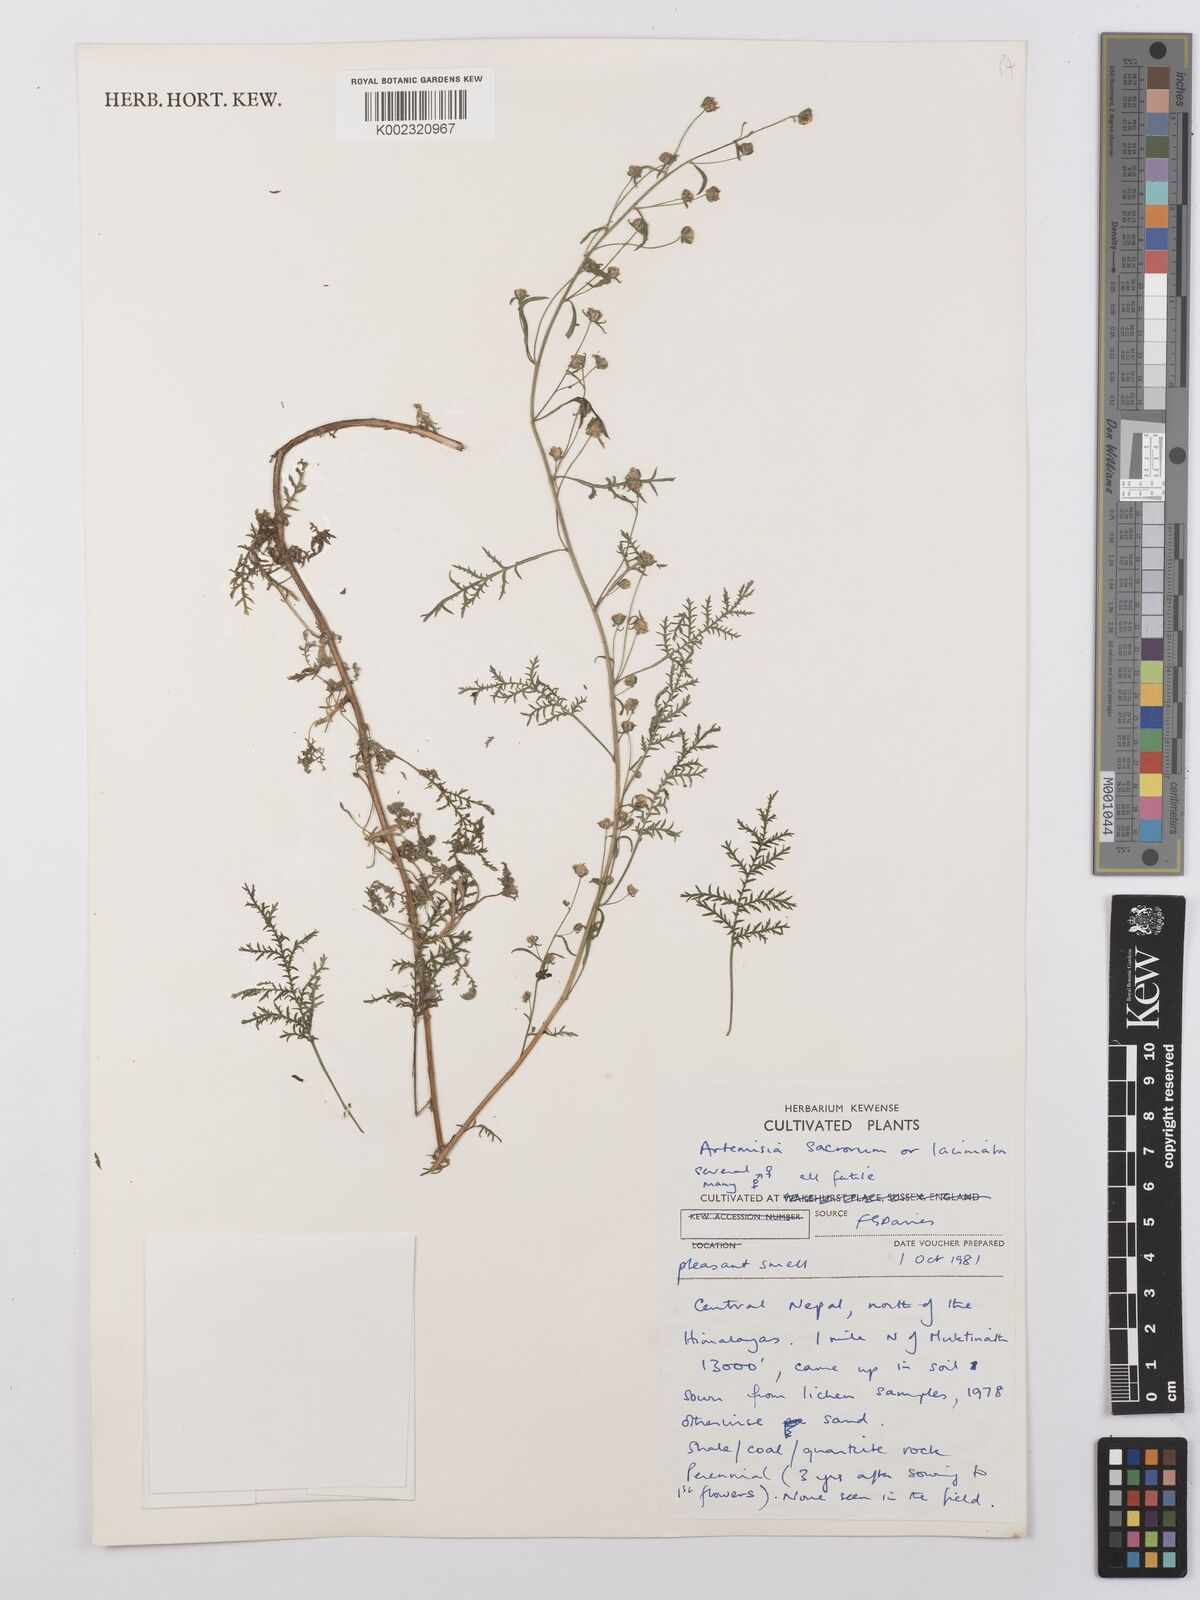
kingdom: Plantae
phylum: Tracheophyta
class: Magnoliopsida
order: Asterales
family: Asteraceae
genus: Artemisia
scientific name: Artemisia
